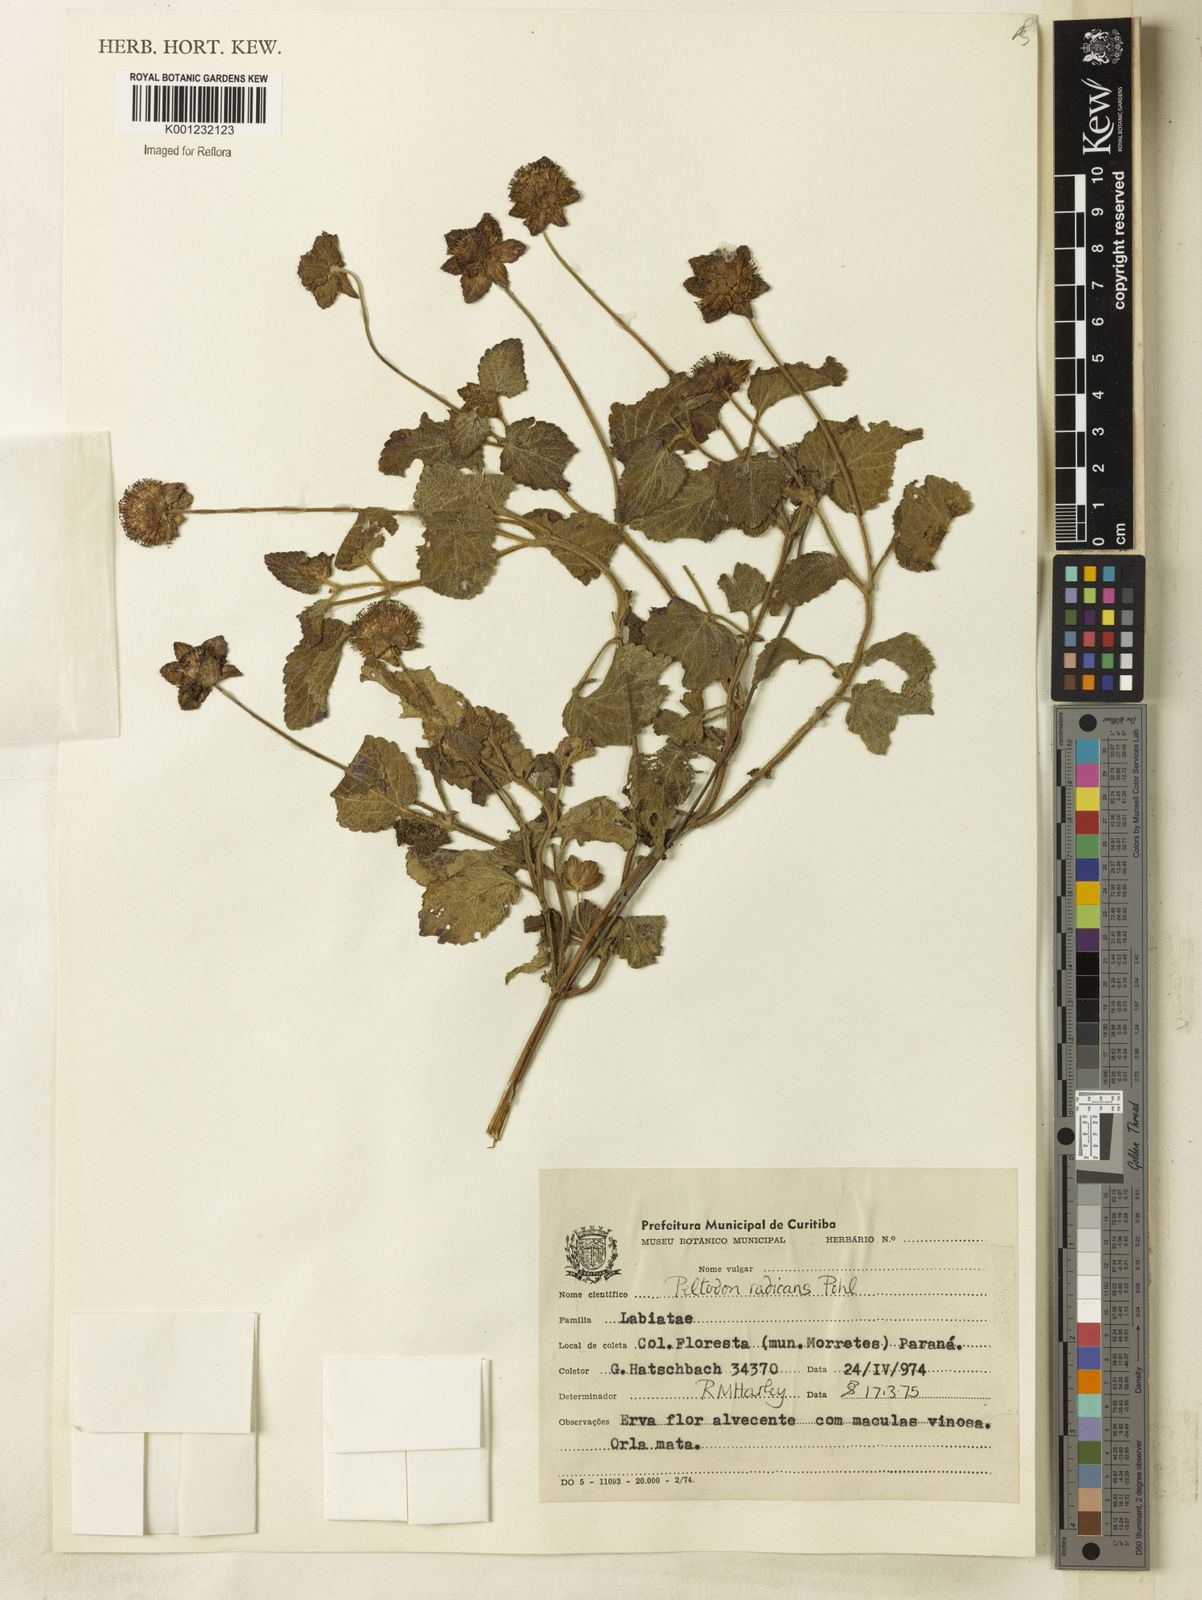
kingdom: Plantae
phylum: Tracheophyta
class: Magnoliopsida
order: Lamiales
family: Lamiaceae
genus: Hyptis
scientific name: Hyptis radicans
